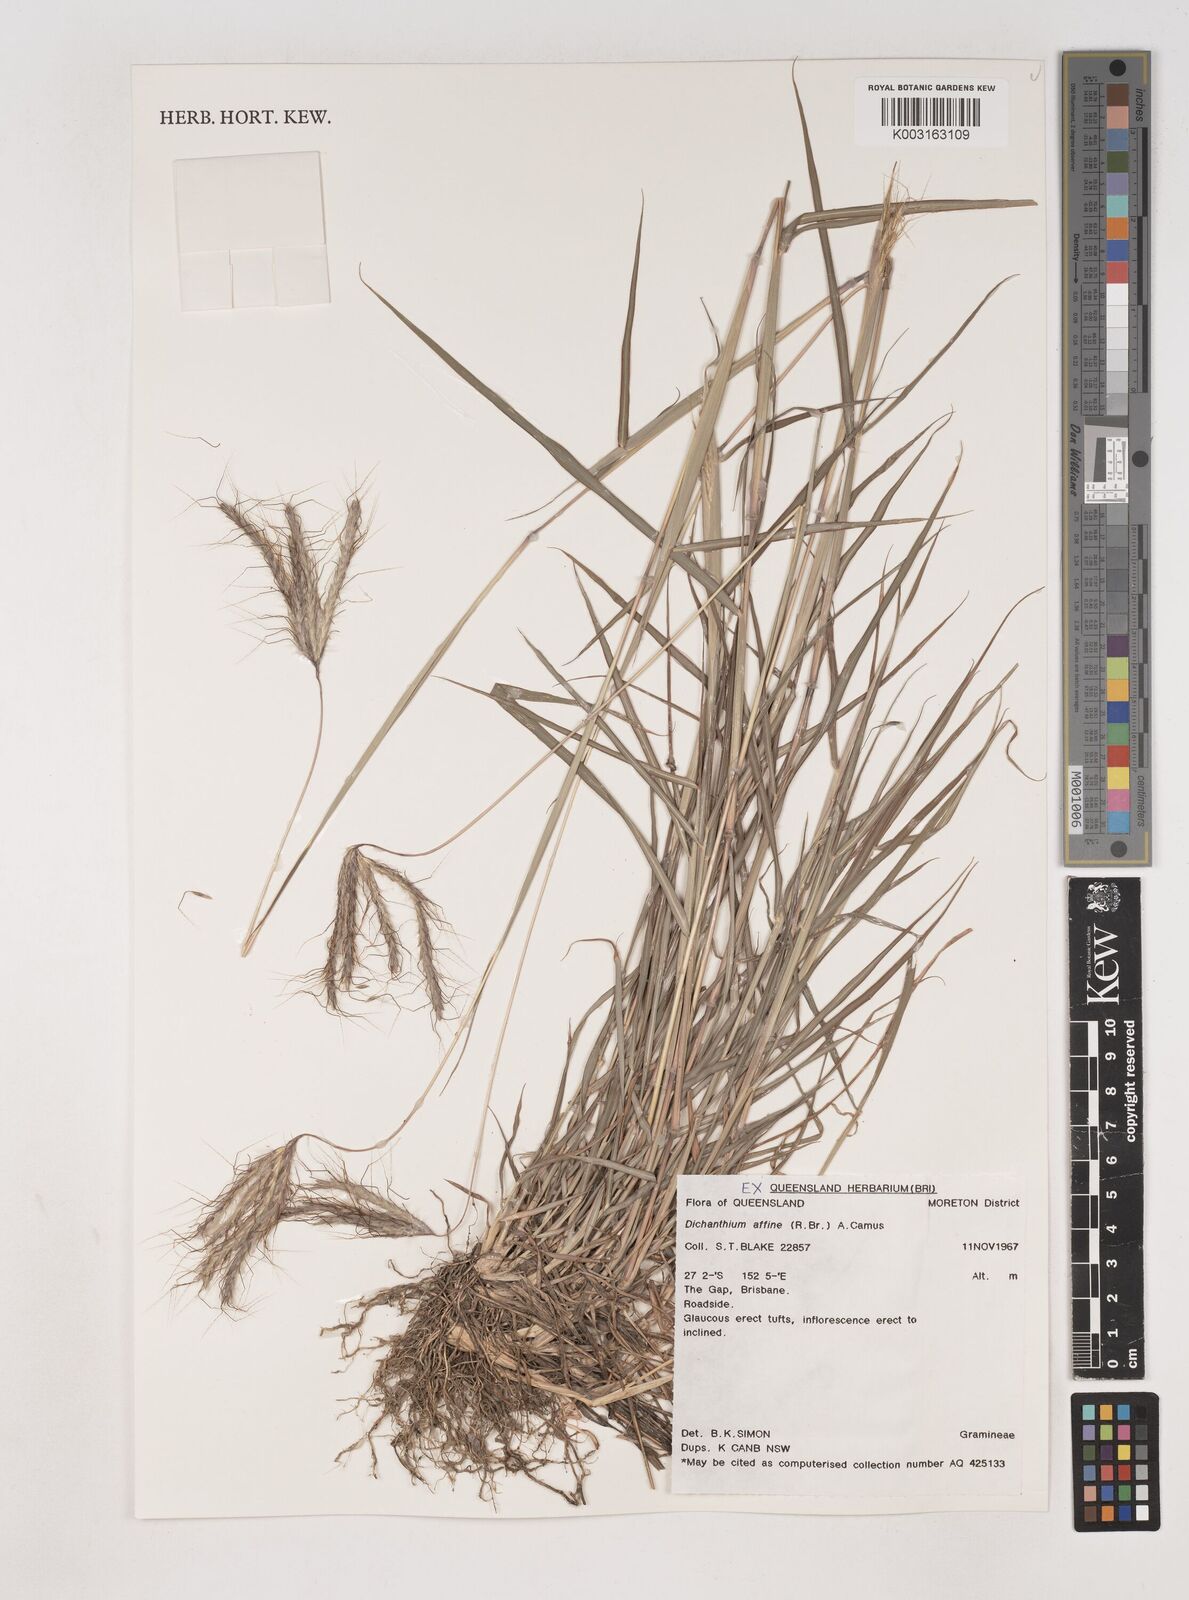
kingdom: Plantae
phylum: Tracheophyta
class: Liliopsida
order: Poales
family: Poaceae
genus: Dichanthium
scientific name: Dichanthium sericeum
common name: Silky bluestem
